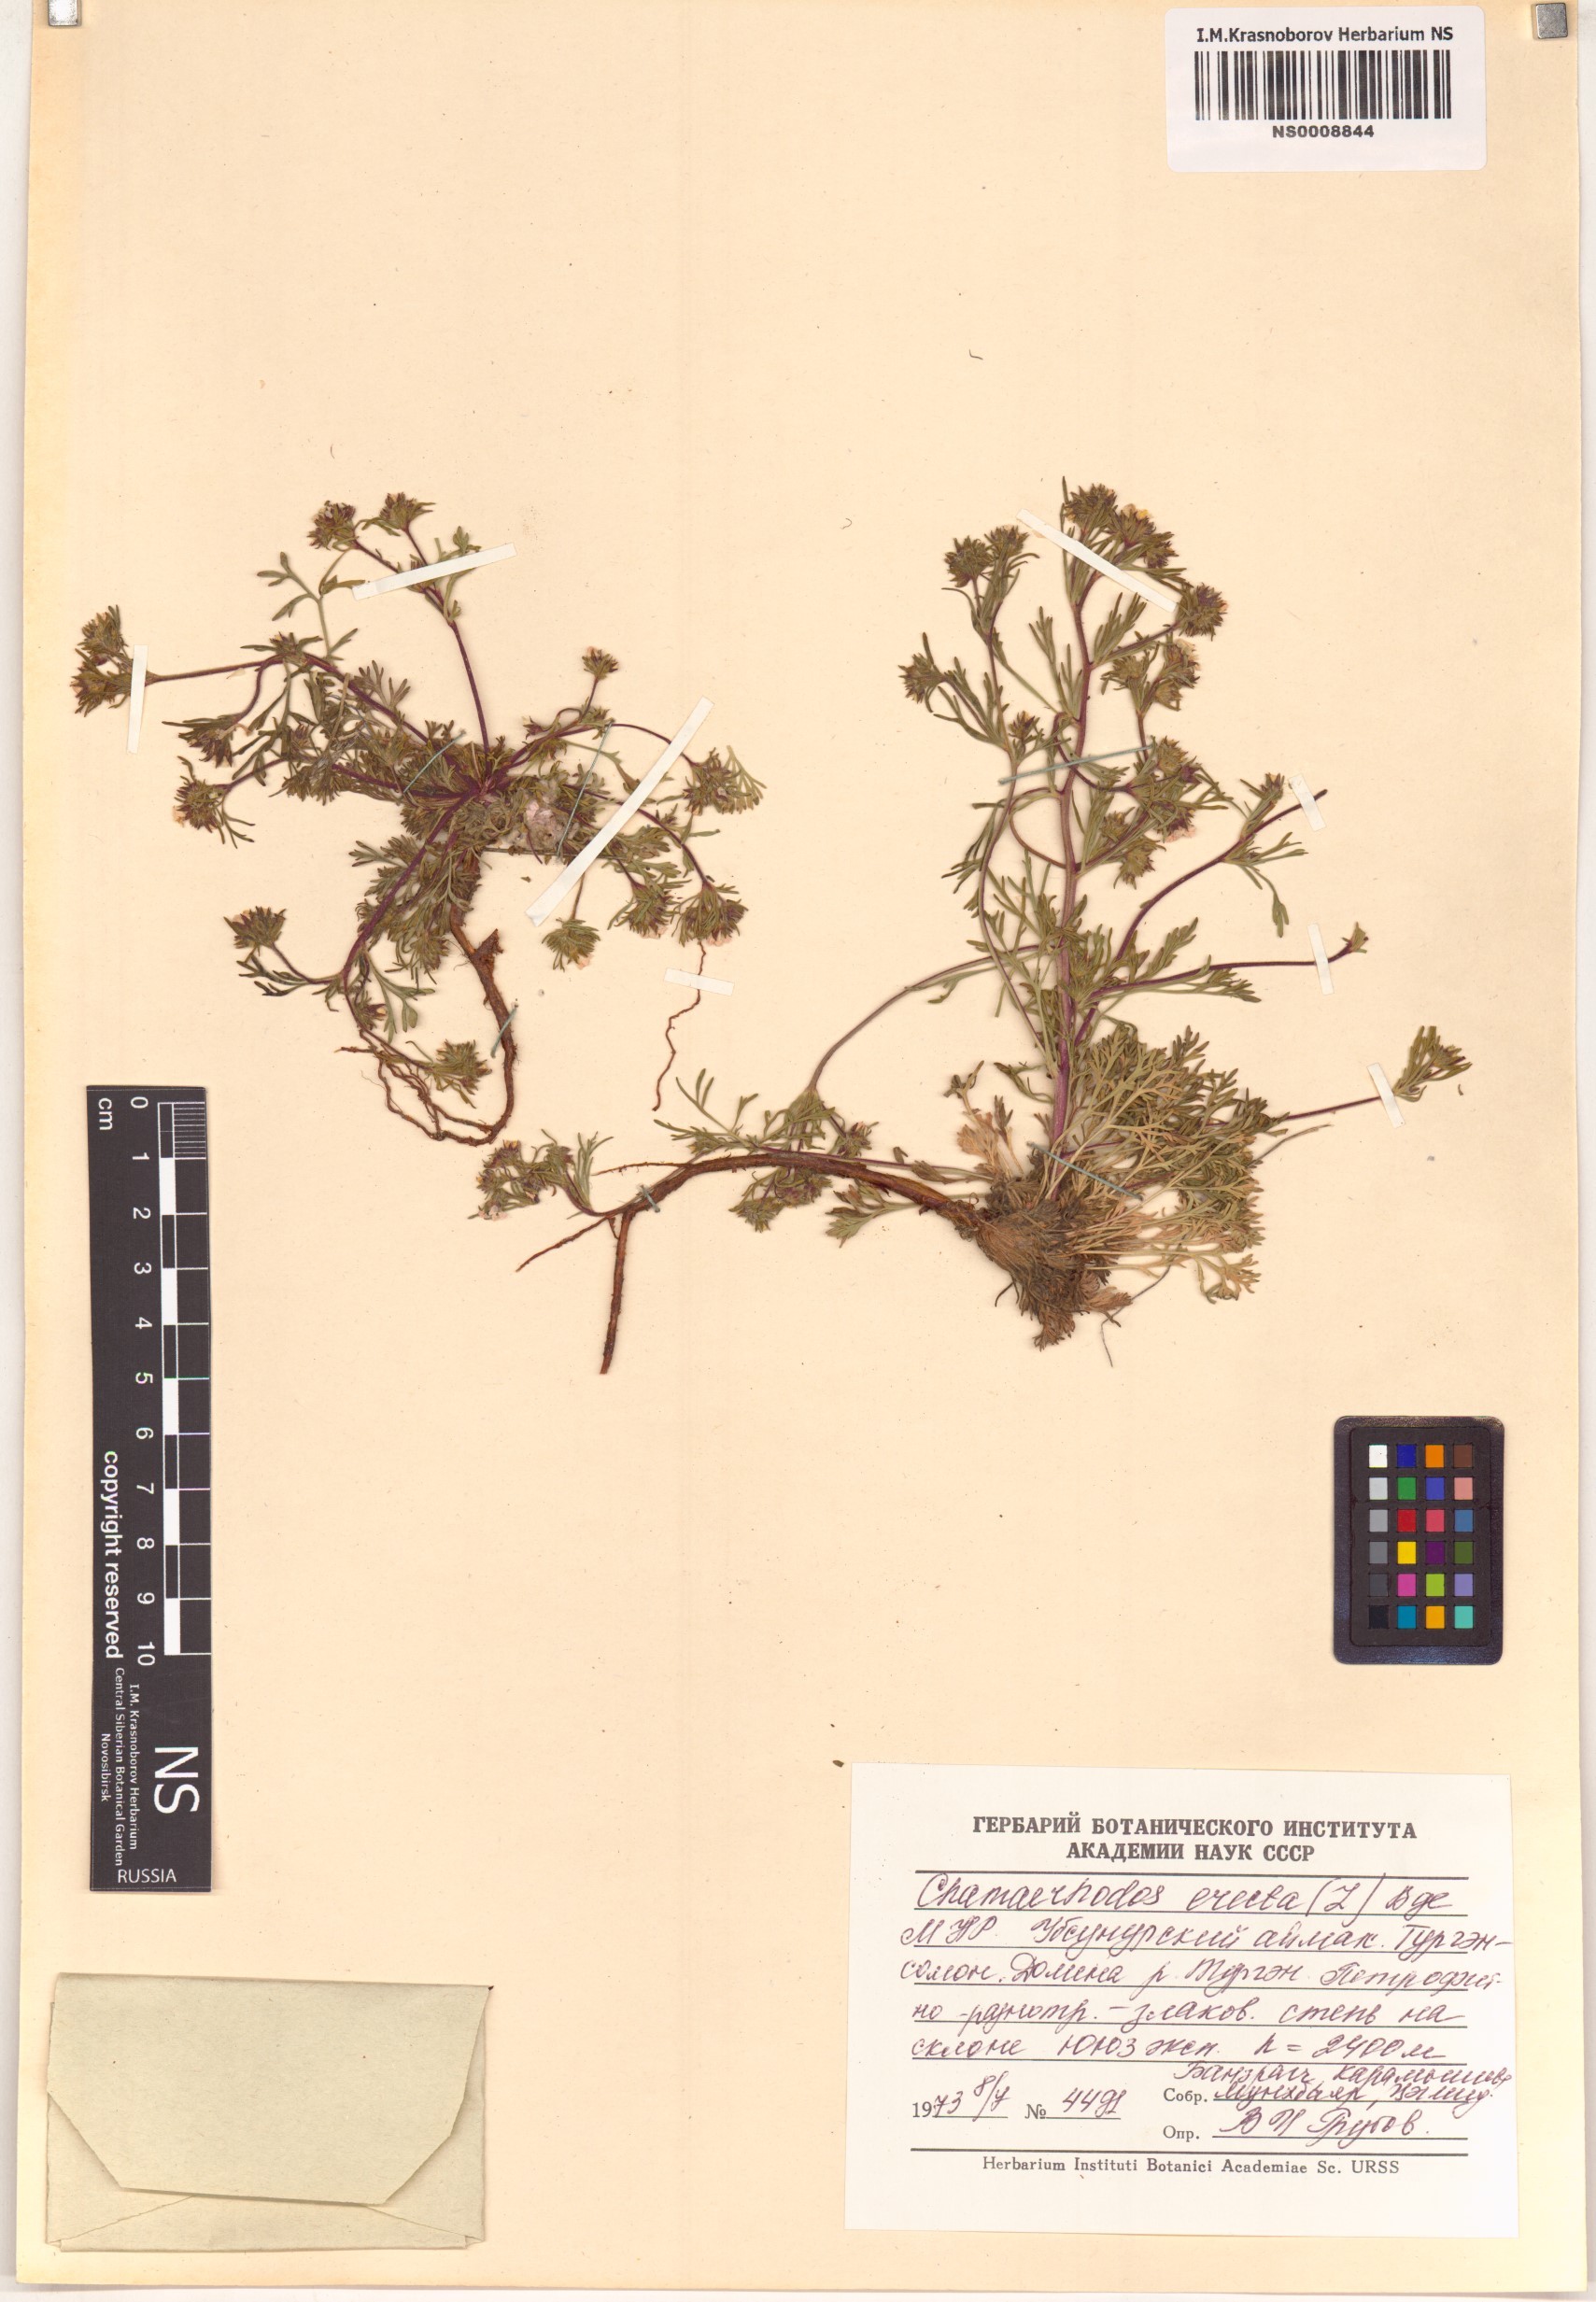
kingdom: Plantae
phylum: Tracheophyta
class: Magnoliopsida
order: Rosales
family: Rosaceae
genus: Chamaerhodos
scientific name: Chamaerhodos erecta
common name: American chamaerhodos
